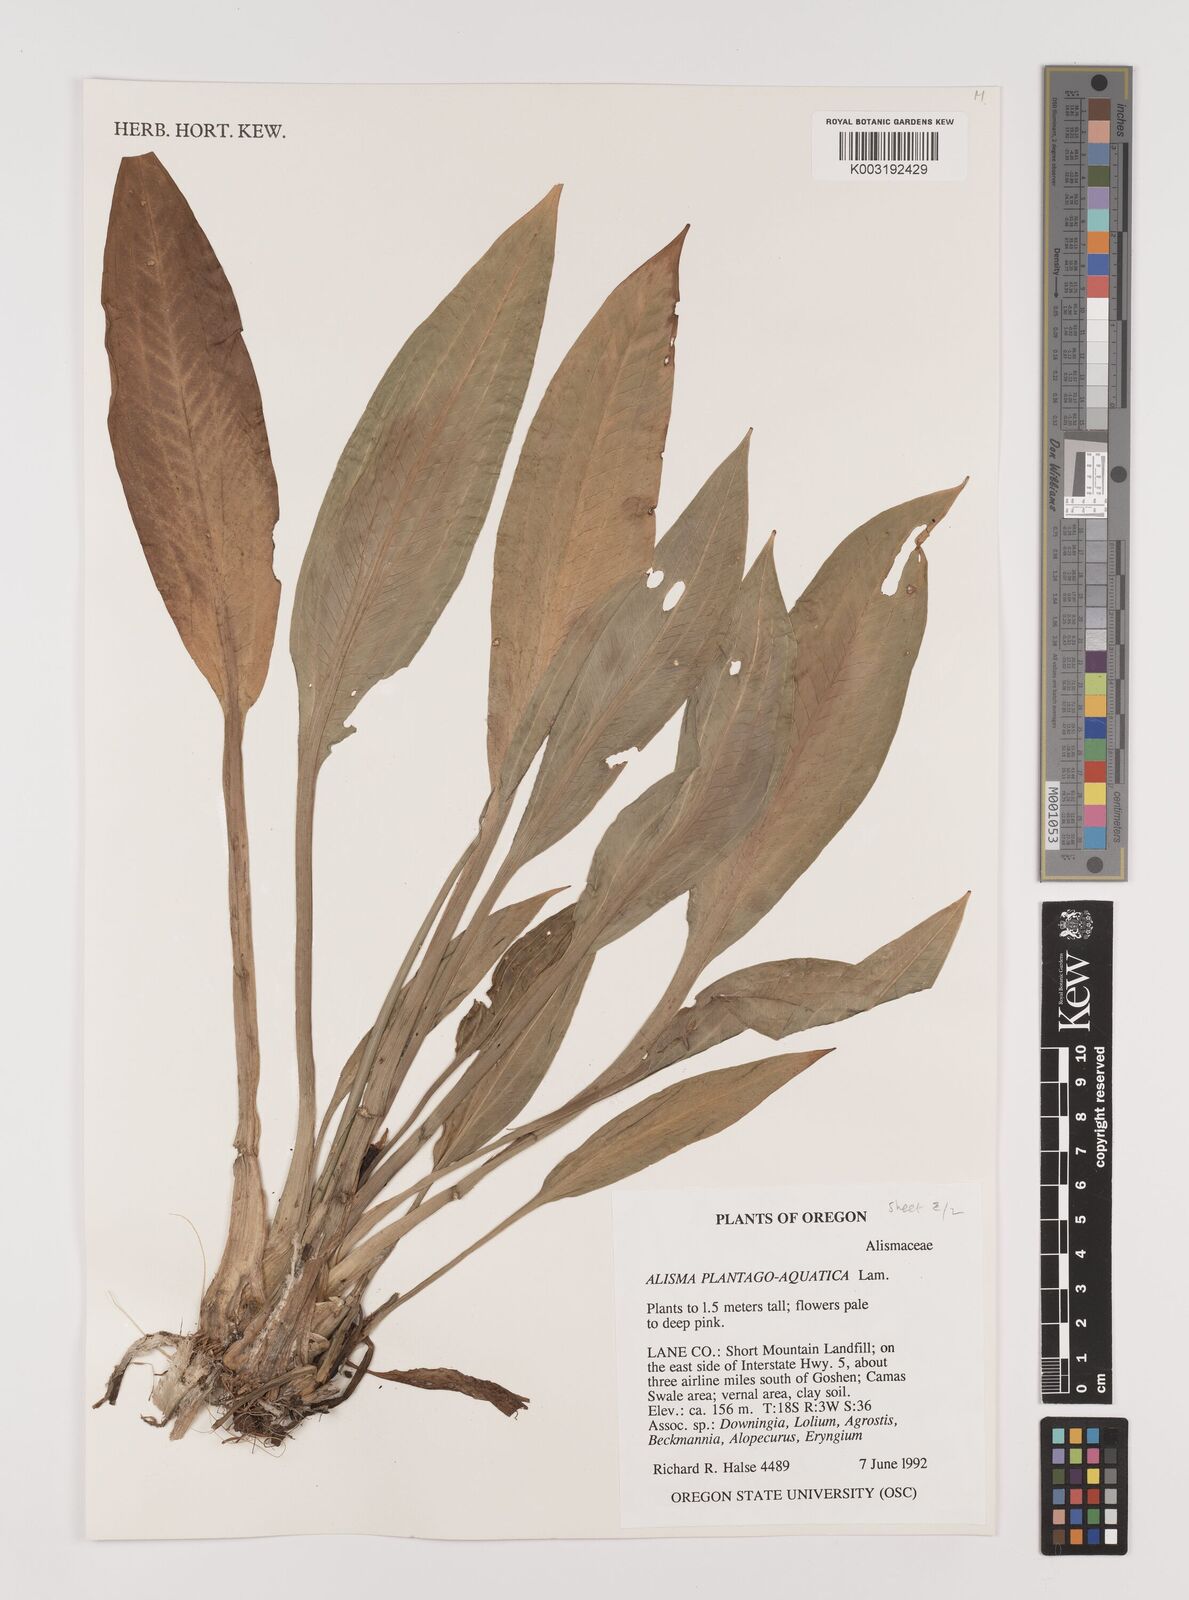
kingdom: Plantae
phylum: Tracheophyta
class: Liliopsida
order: Alismatales
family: Alismataceae
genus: Alisma
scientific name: Alisma plantago-aquatica
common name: Water-plantain
